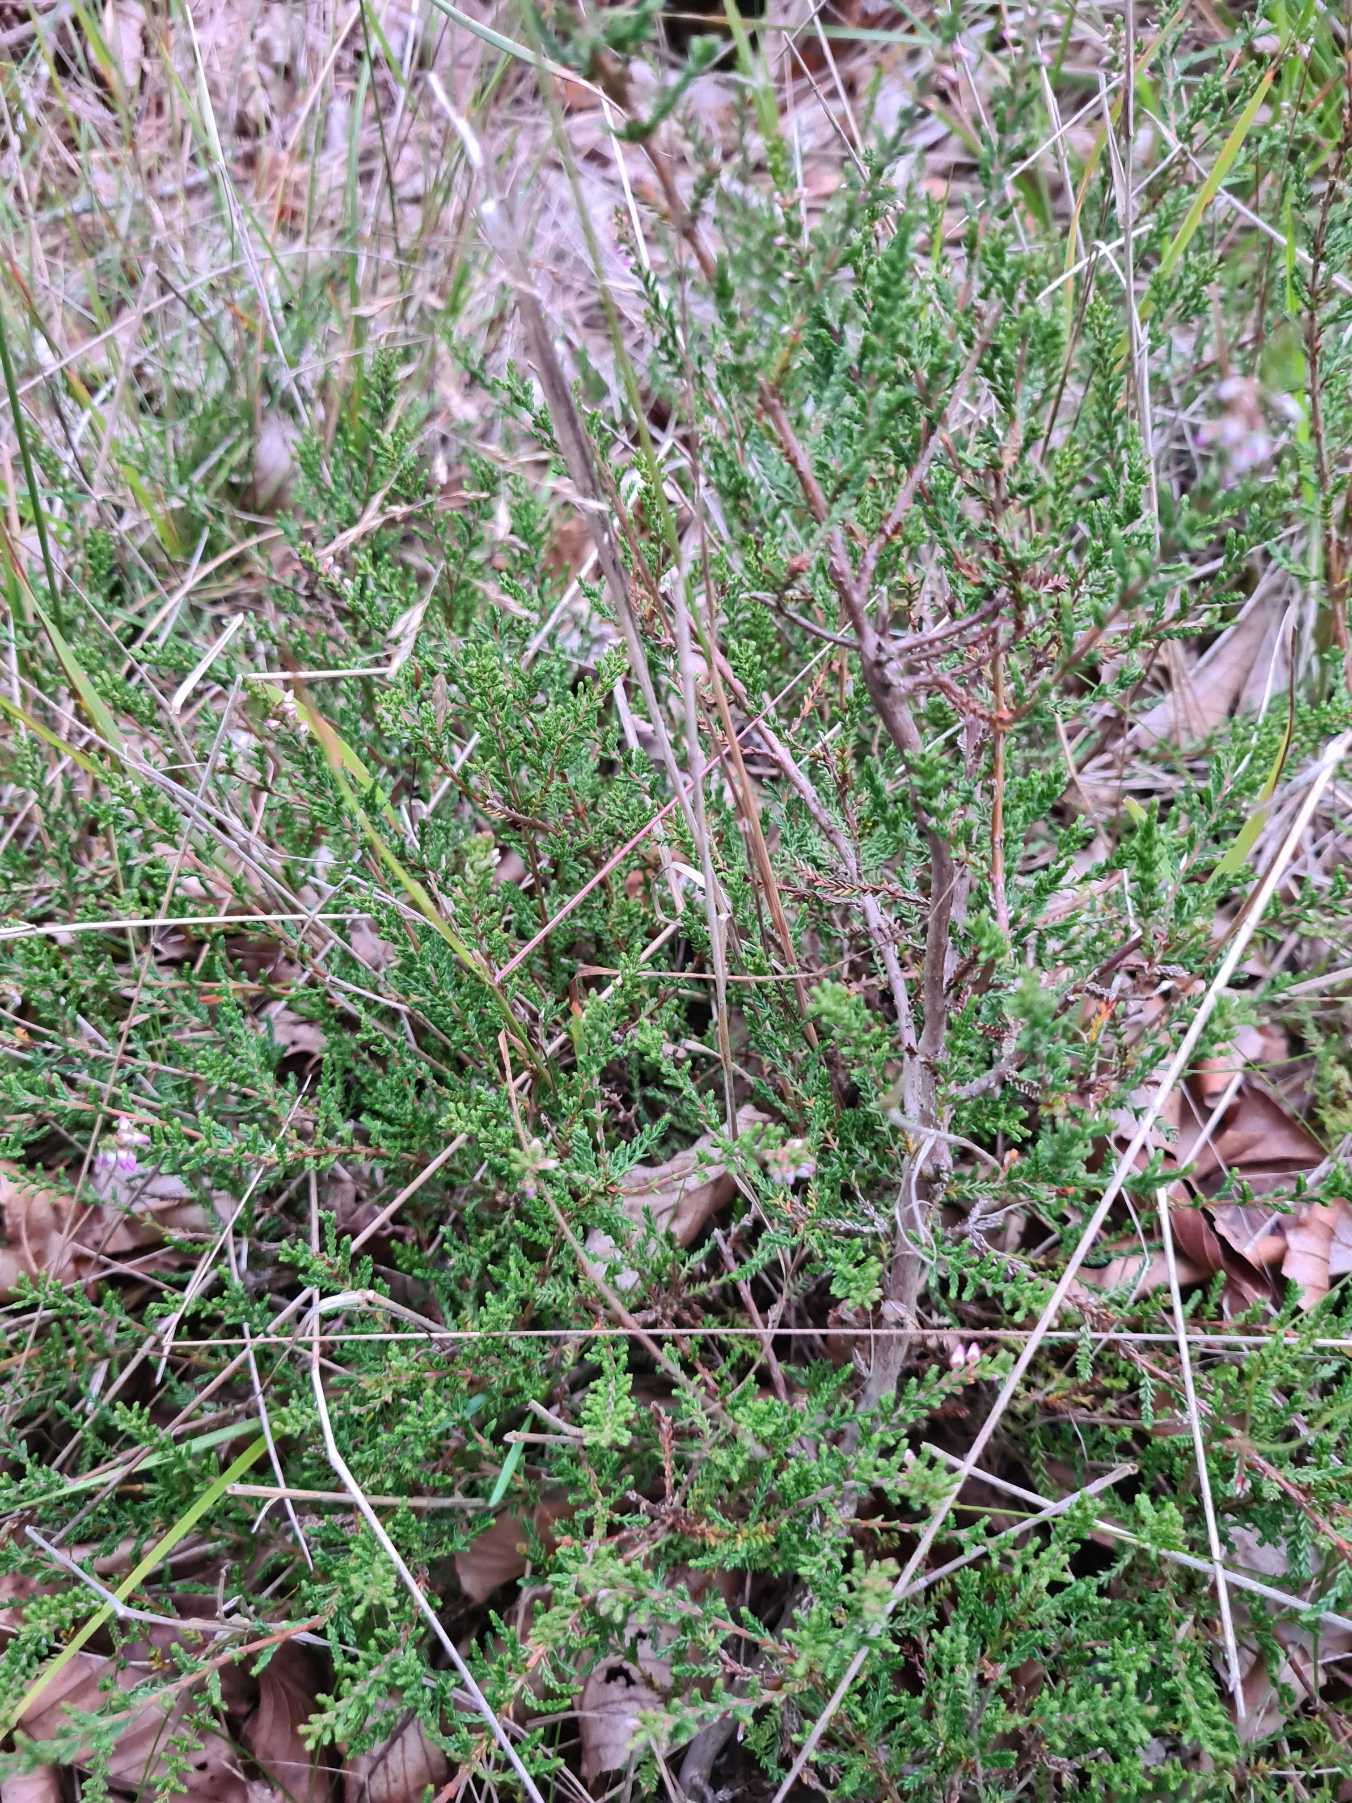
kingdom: Plantae
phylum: Tracheophyta
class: Magnoliopsida
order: Ericales
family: Ericaceae
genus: Calluna
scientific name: Calluna vulgaris
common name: Hedelyng
